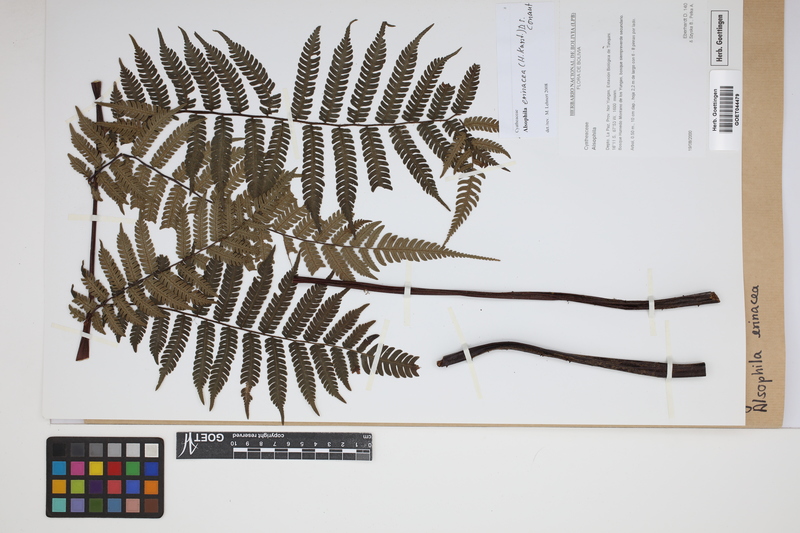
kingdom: Plantae
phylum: Tracheophyta
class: Polypodiopsida
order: Cyatheales
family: Cyatheaceae
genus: Alsophila
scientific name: Alsophila erinacea
